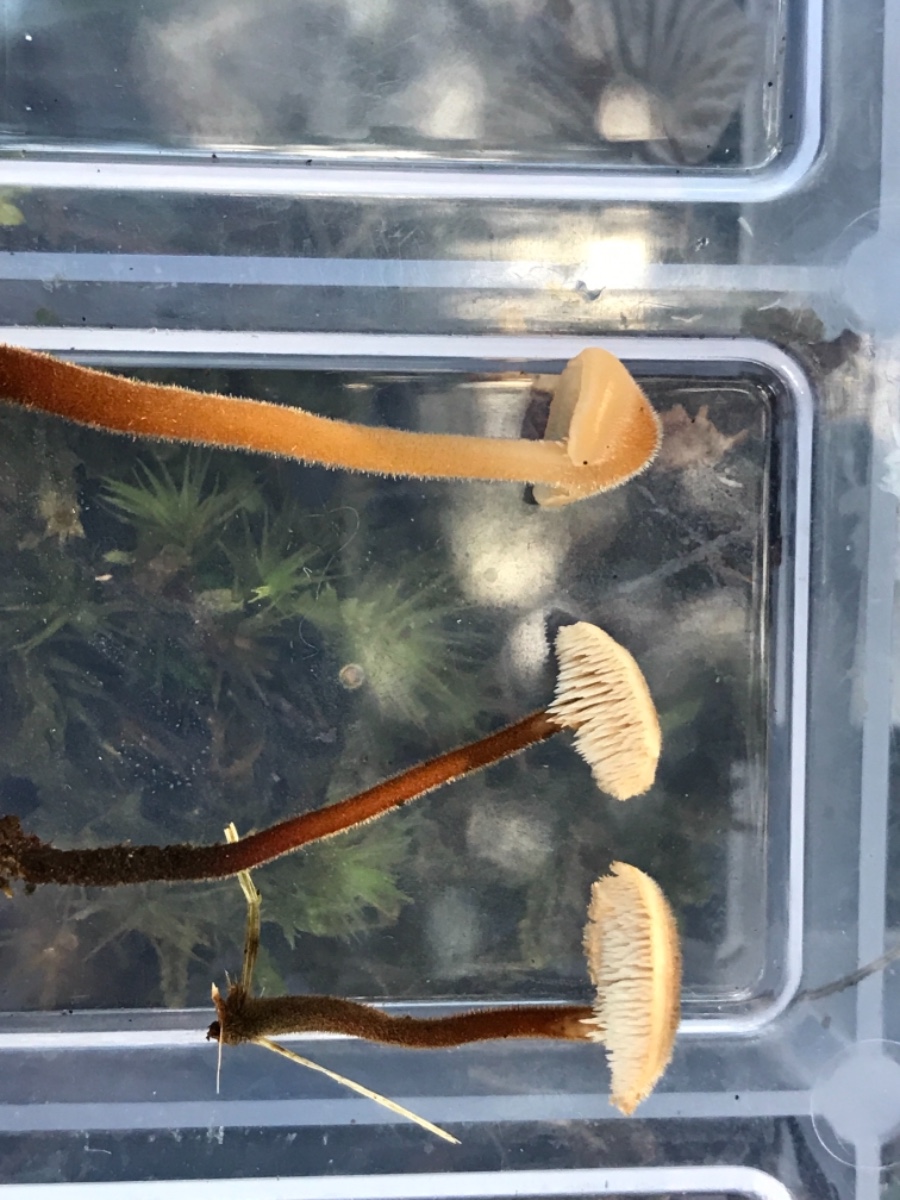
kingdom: Fungi
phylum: Basidiomycota
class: Agaricomycetes
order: Russulales
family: Auriscalpiaceae
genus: Auriscalpium
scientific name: Auriscalpium vulgare
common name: koglepigsvamp
